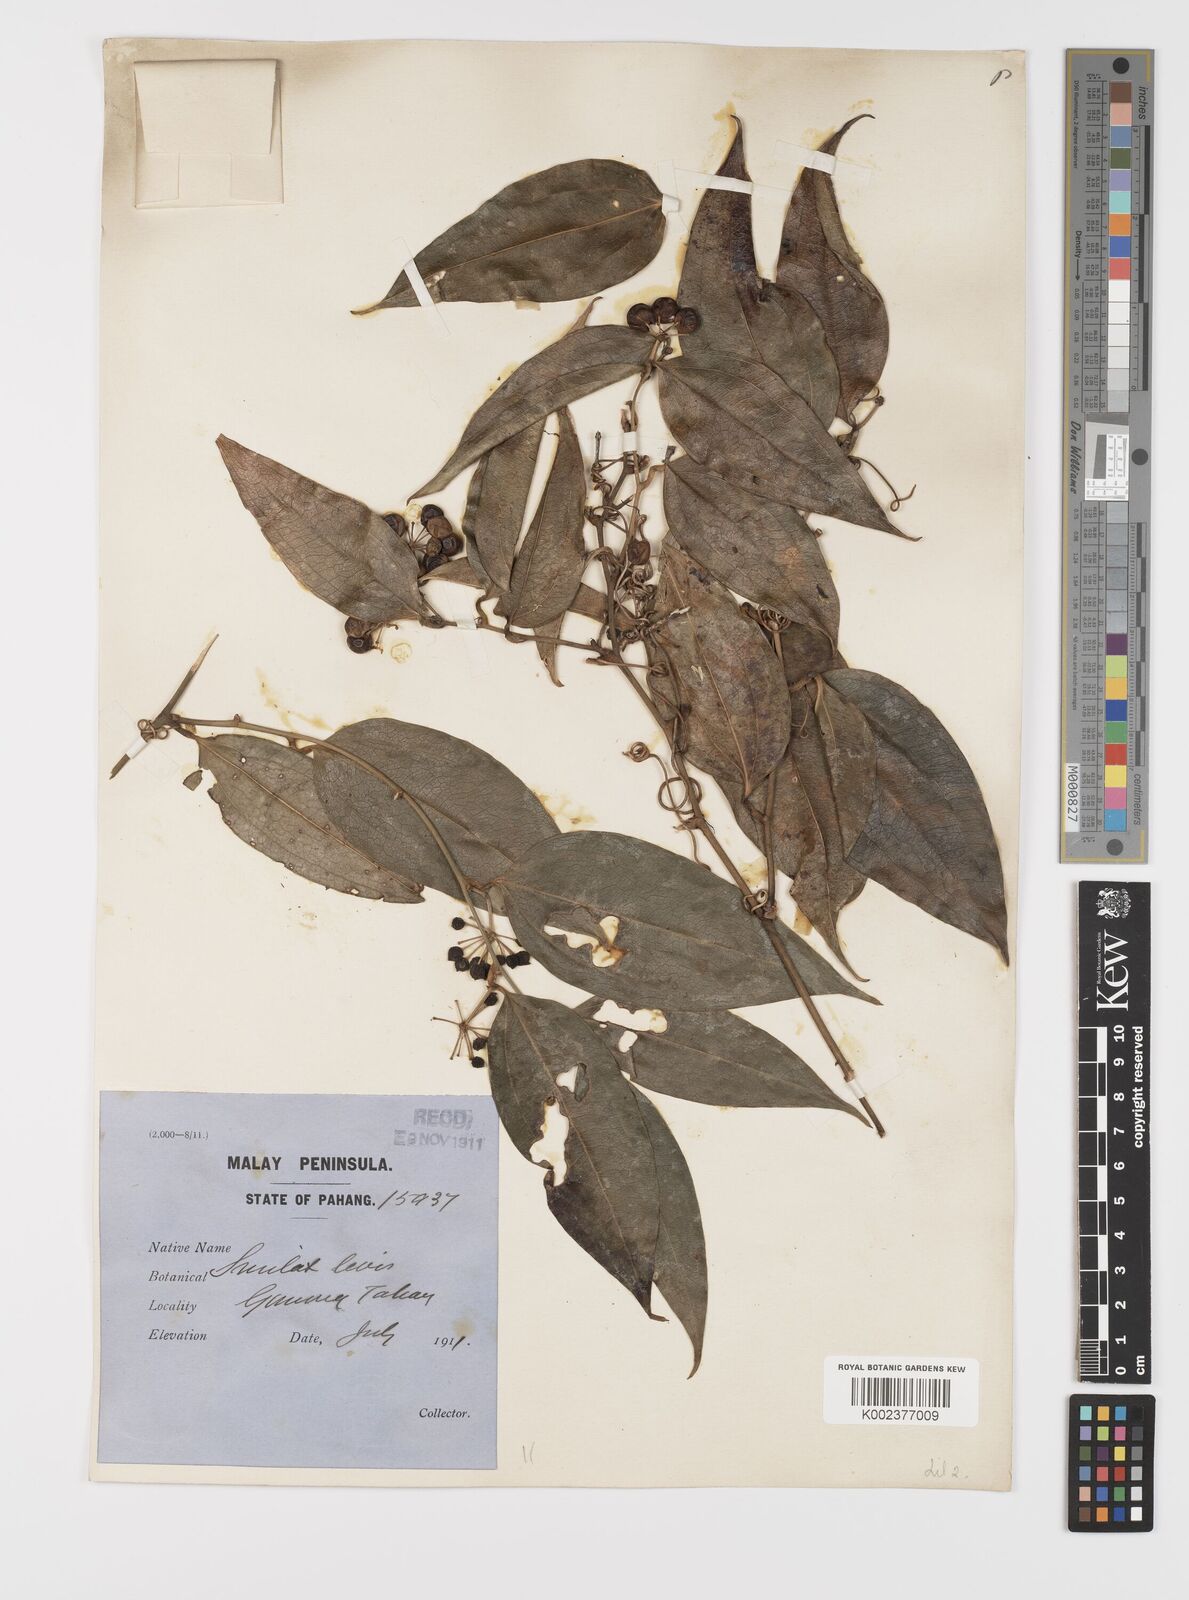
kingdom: Plantae
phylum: Tracheophyta
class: Liliopsida
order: Liliales
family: Smilacaceae
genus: Smilax
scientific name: Smilax laevis
